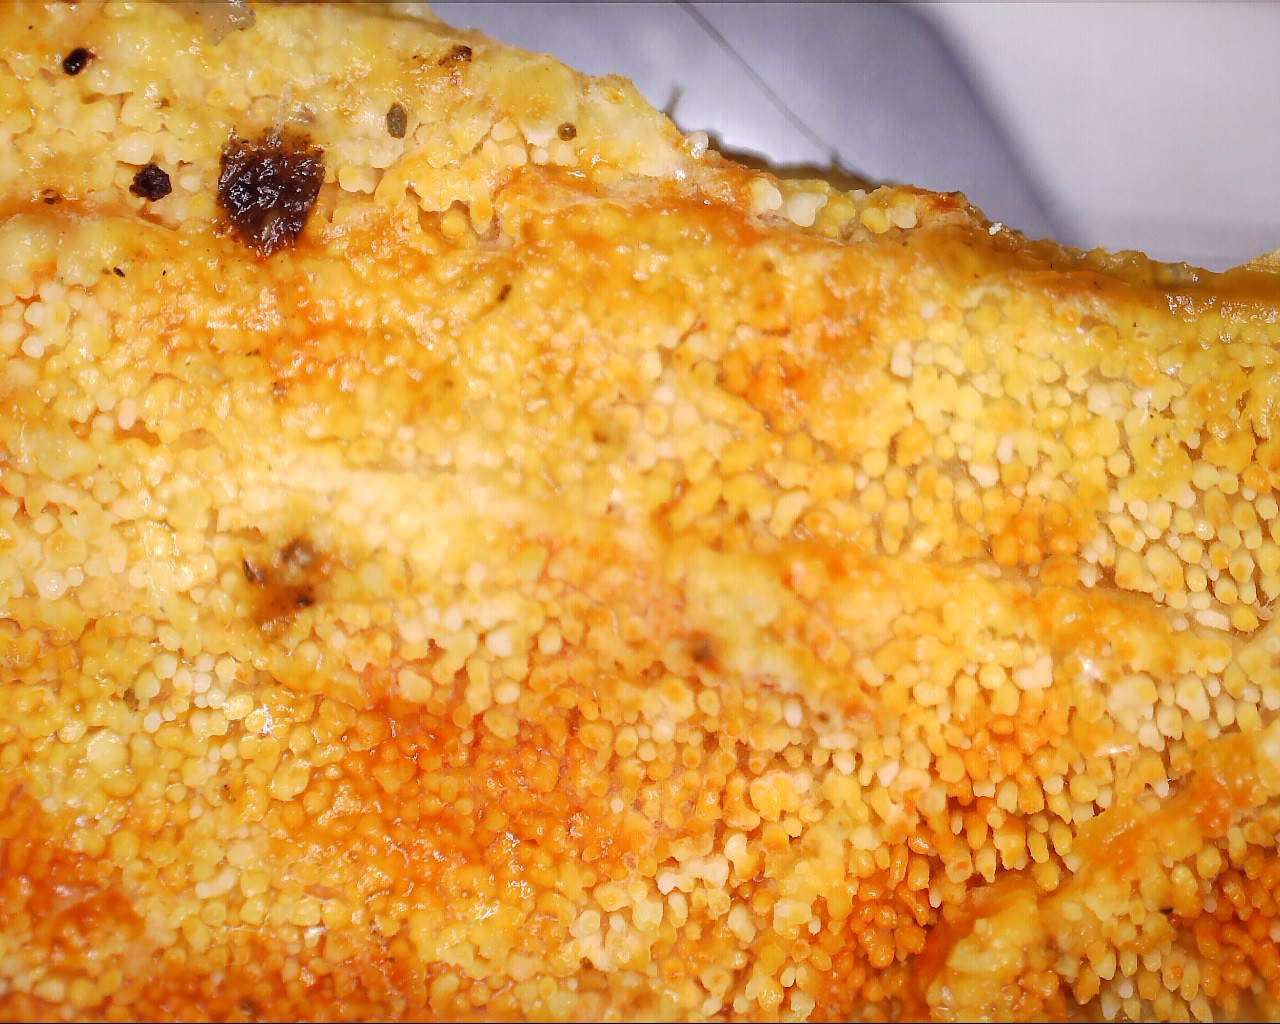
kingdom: Fungi
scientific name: Fungi
